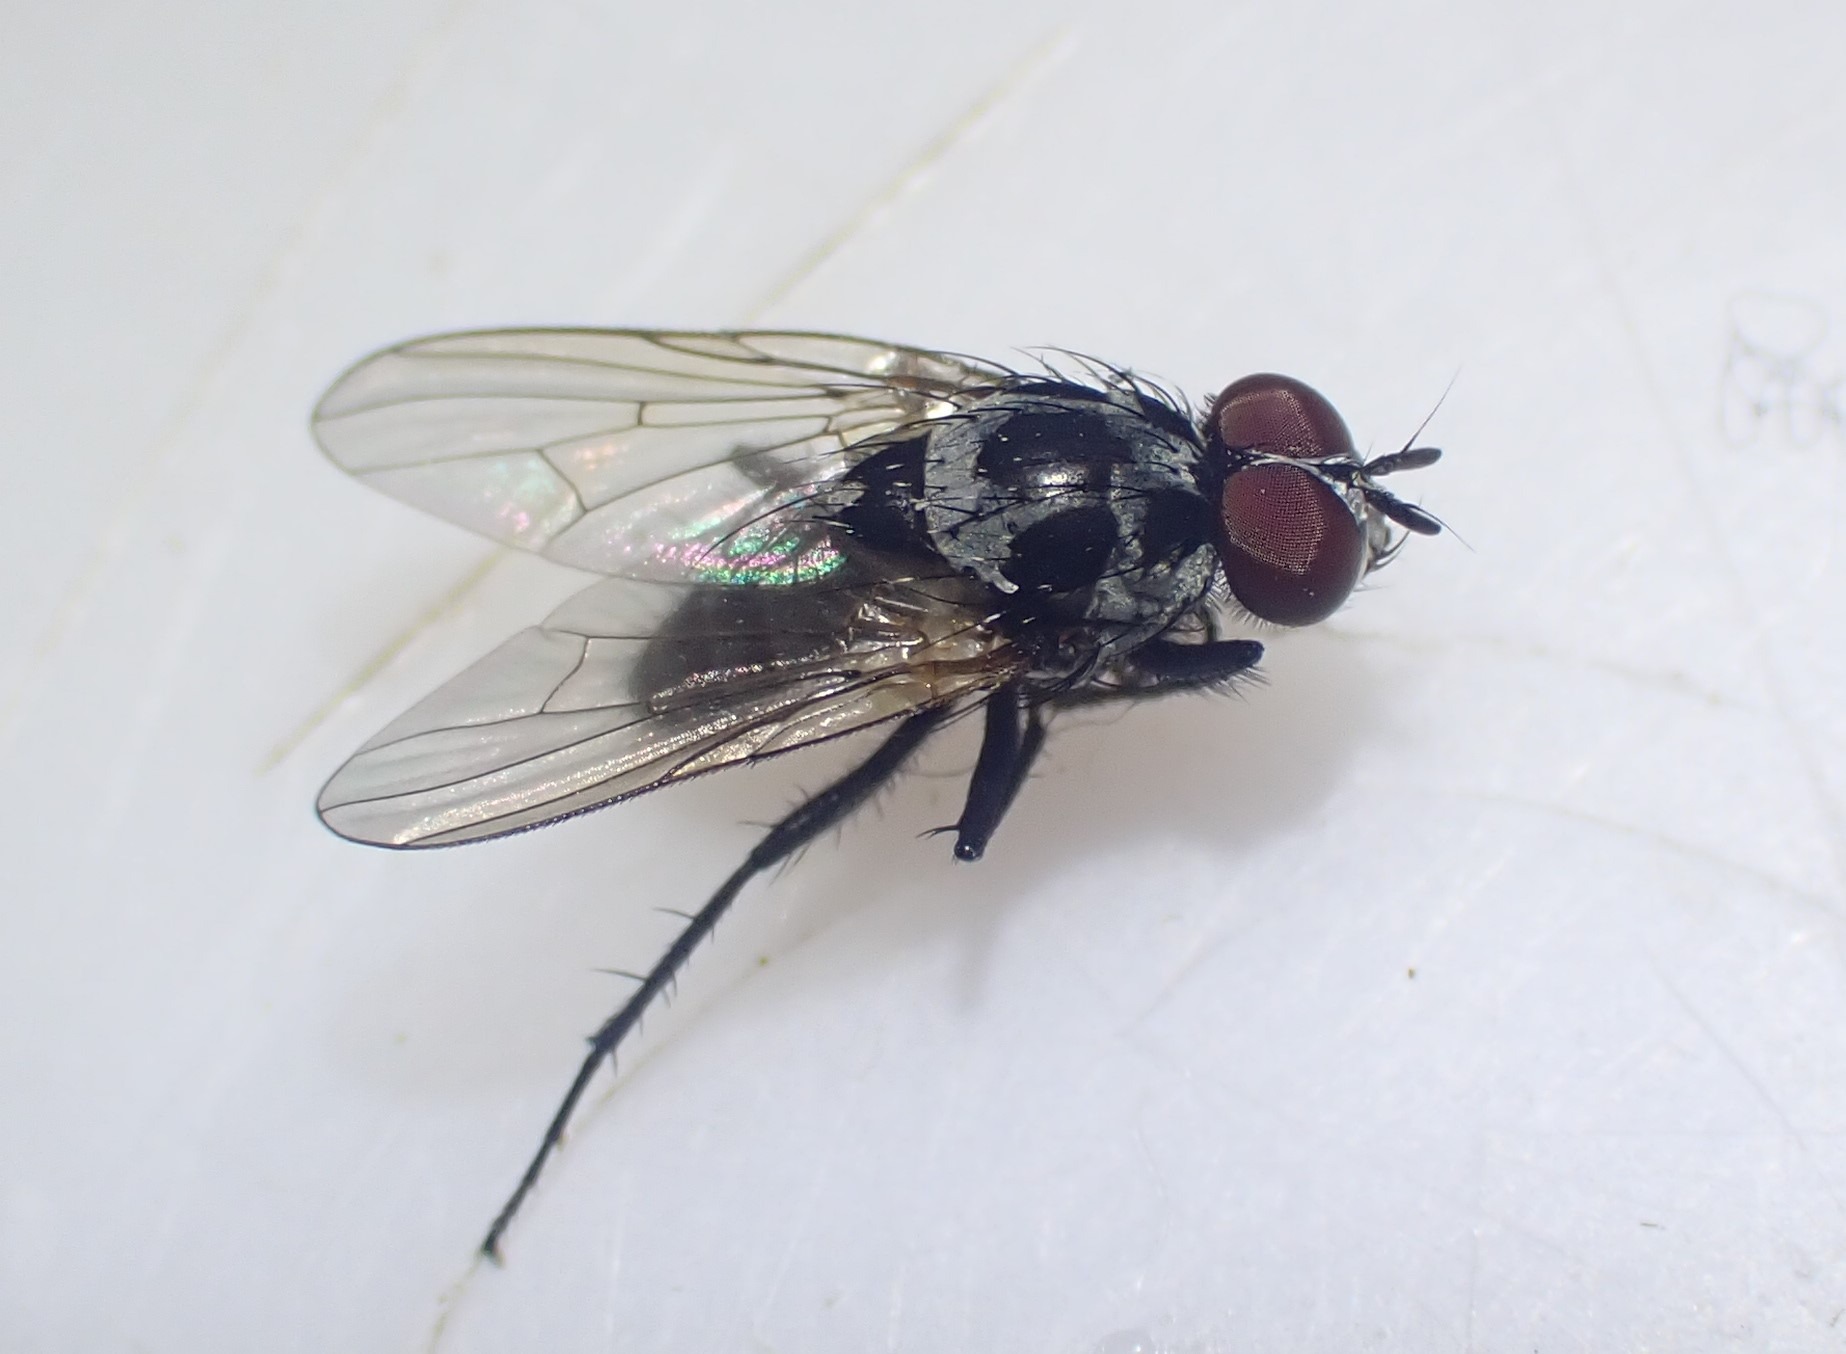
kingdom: Animalia
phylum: Arthropoda
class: Insecta
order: Diptera
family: Anthomyiidae
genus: Anthomyia
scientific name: Anthomyia procellaris
